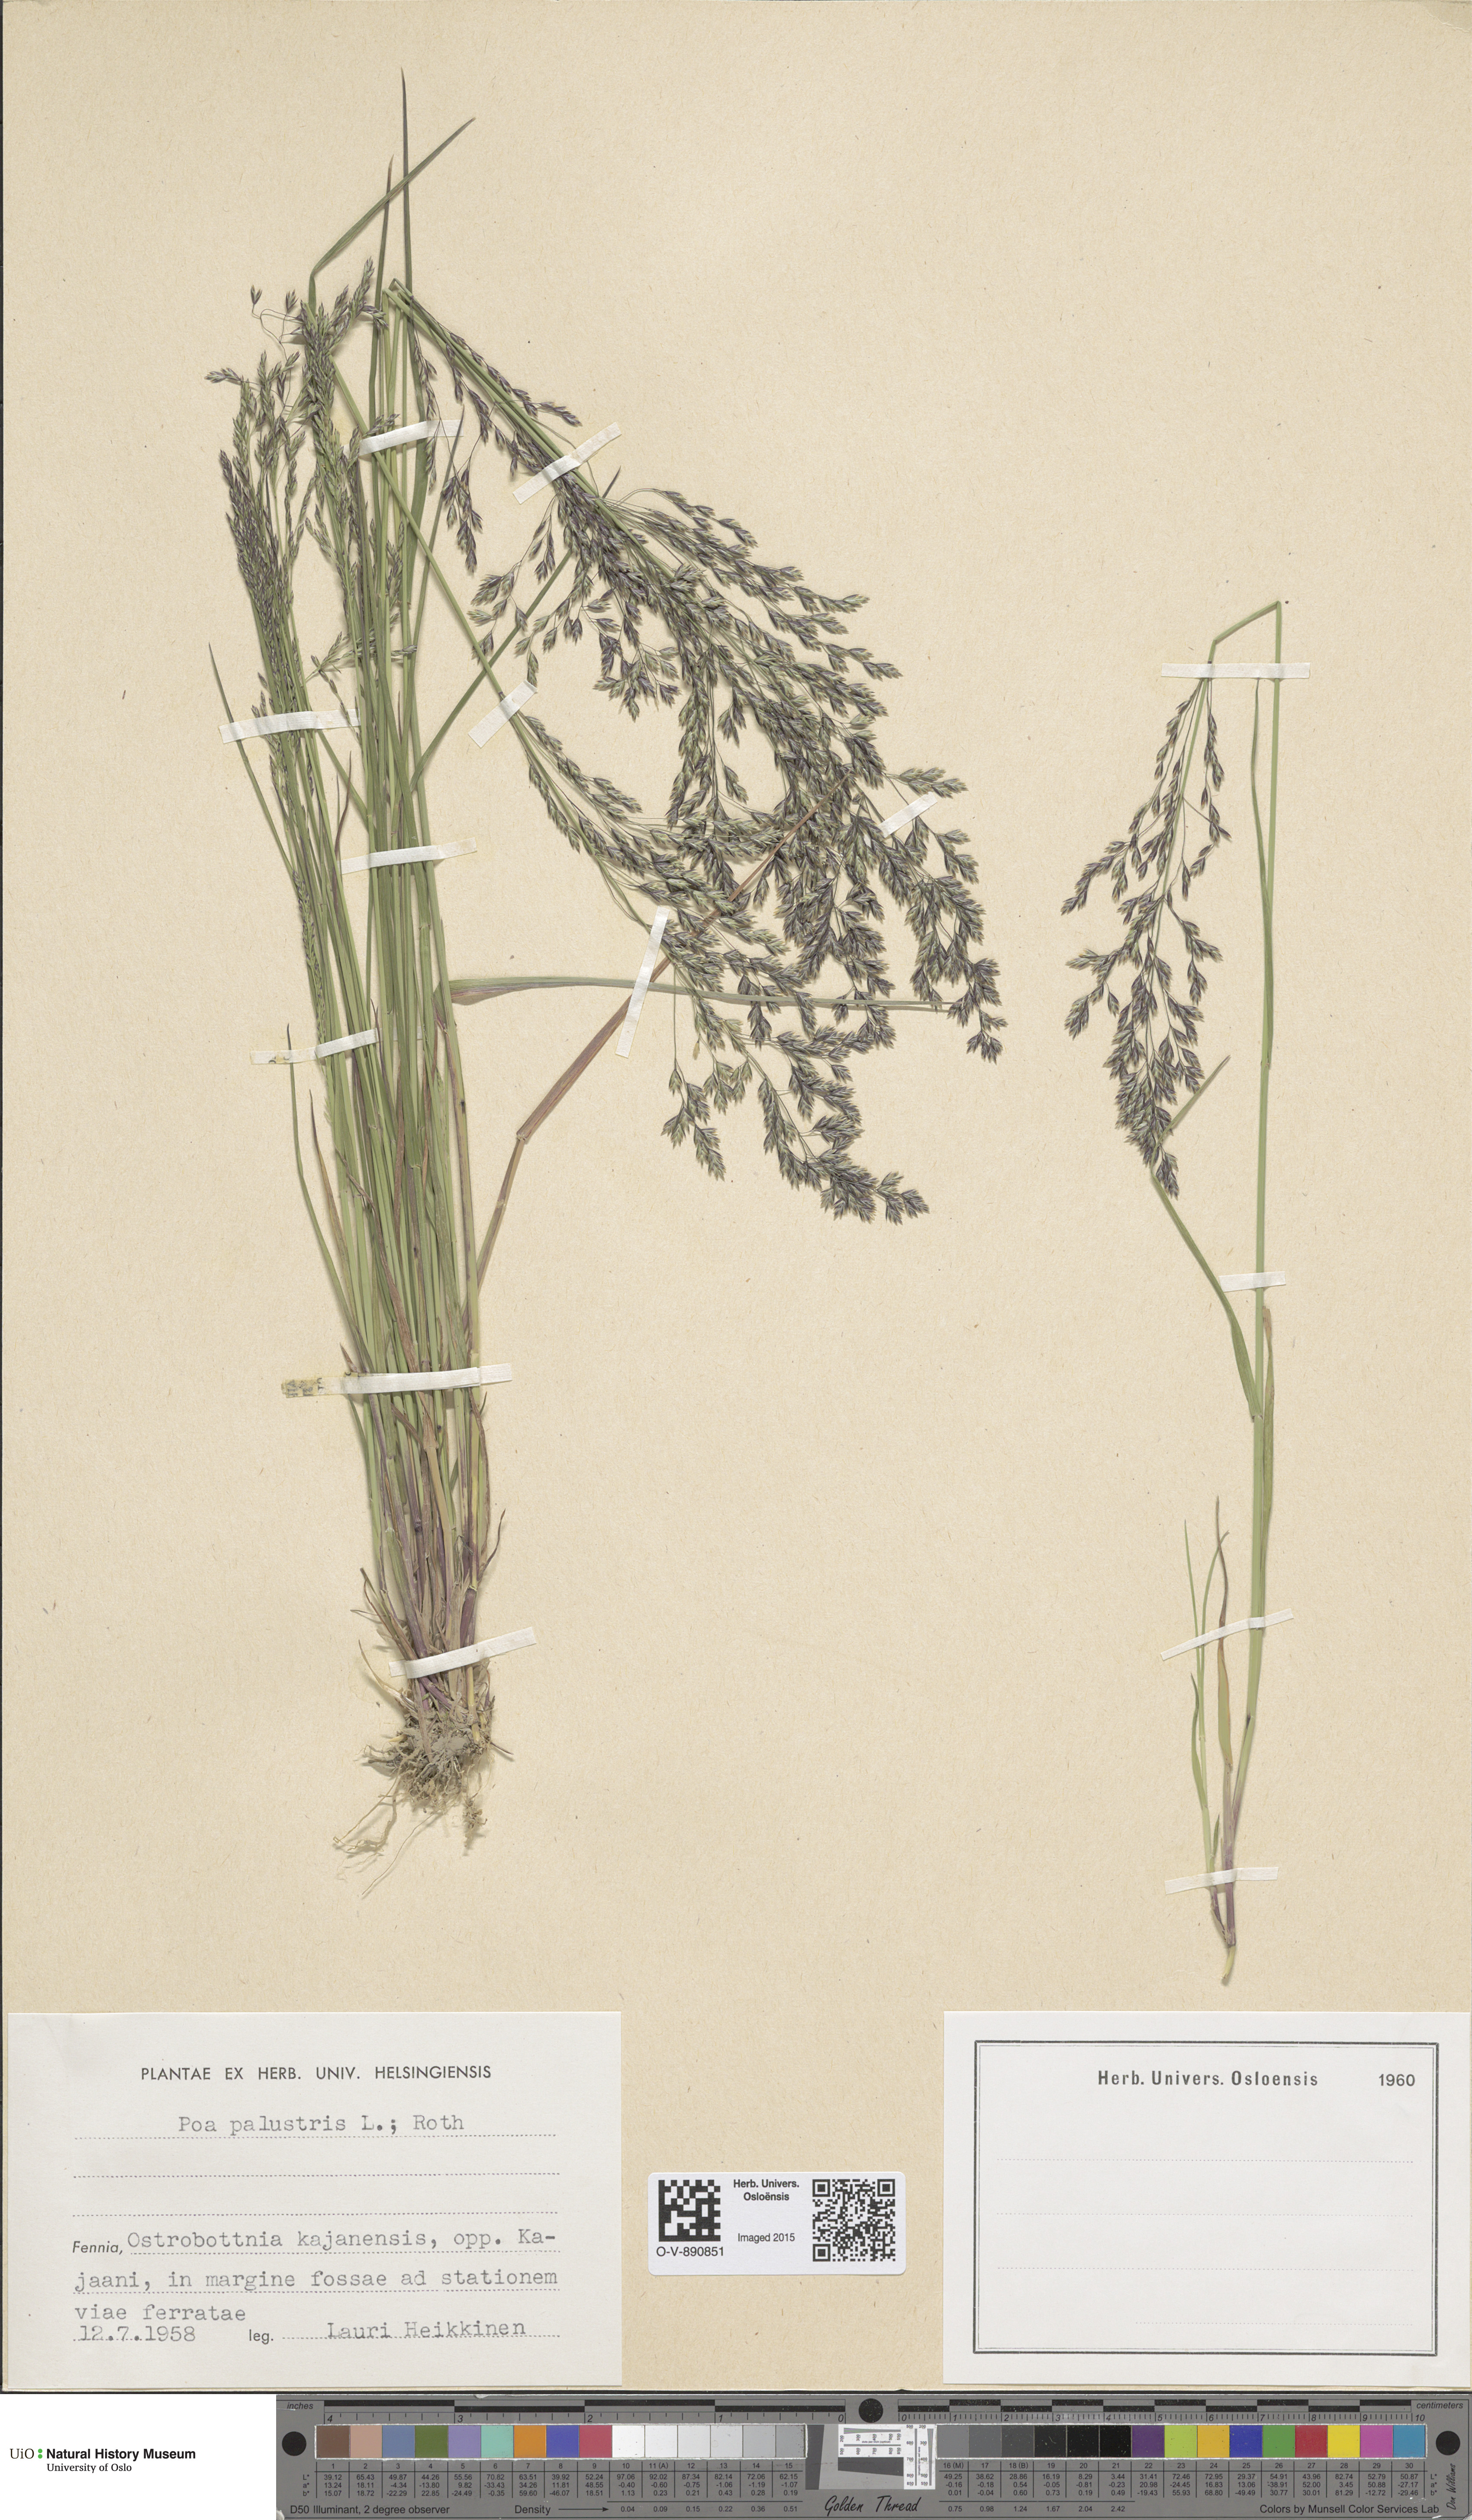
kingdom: Plantae
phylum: Tracheophyta
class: Liliopsida
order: Poales
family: Poaceae
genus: Poa
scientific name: Poa palustris
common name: Swamp meadow-grass
